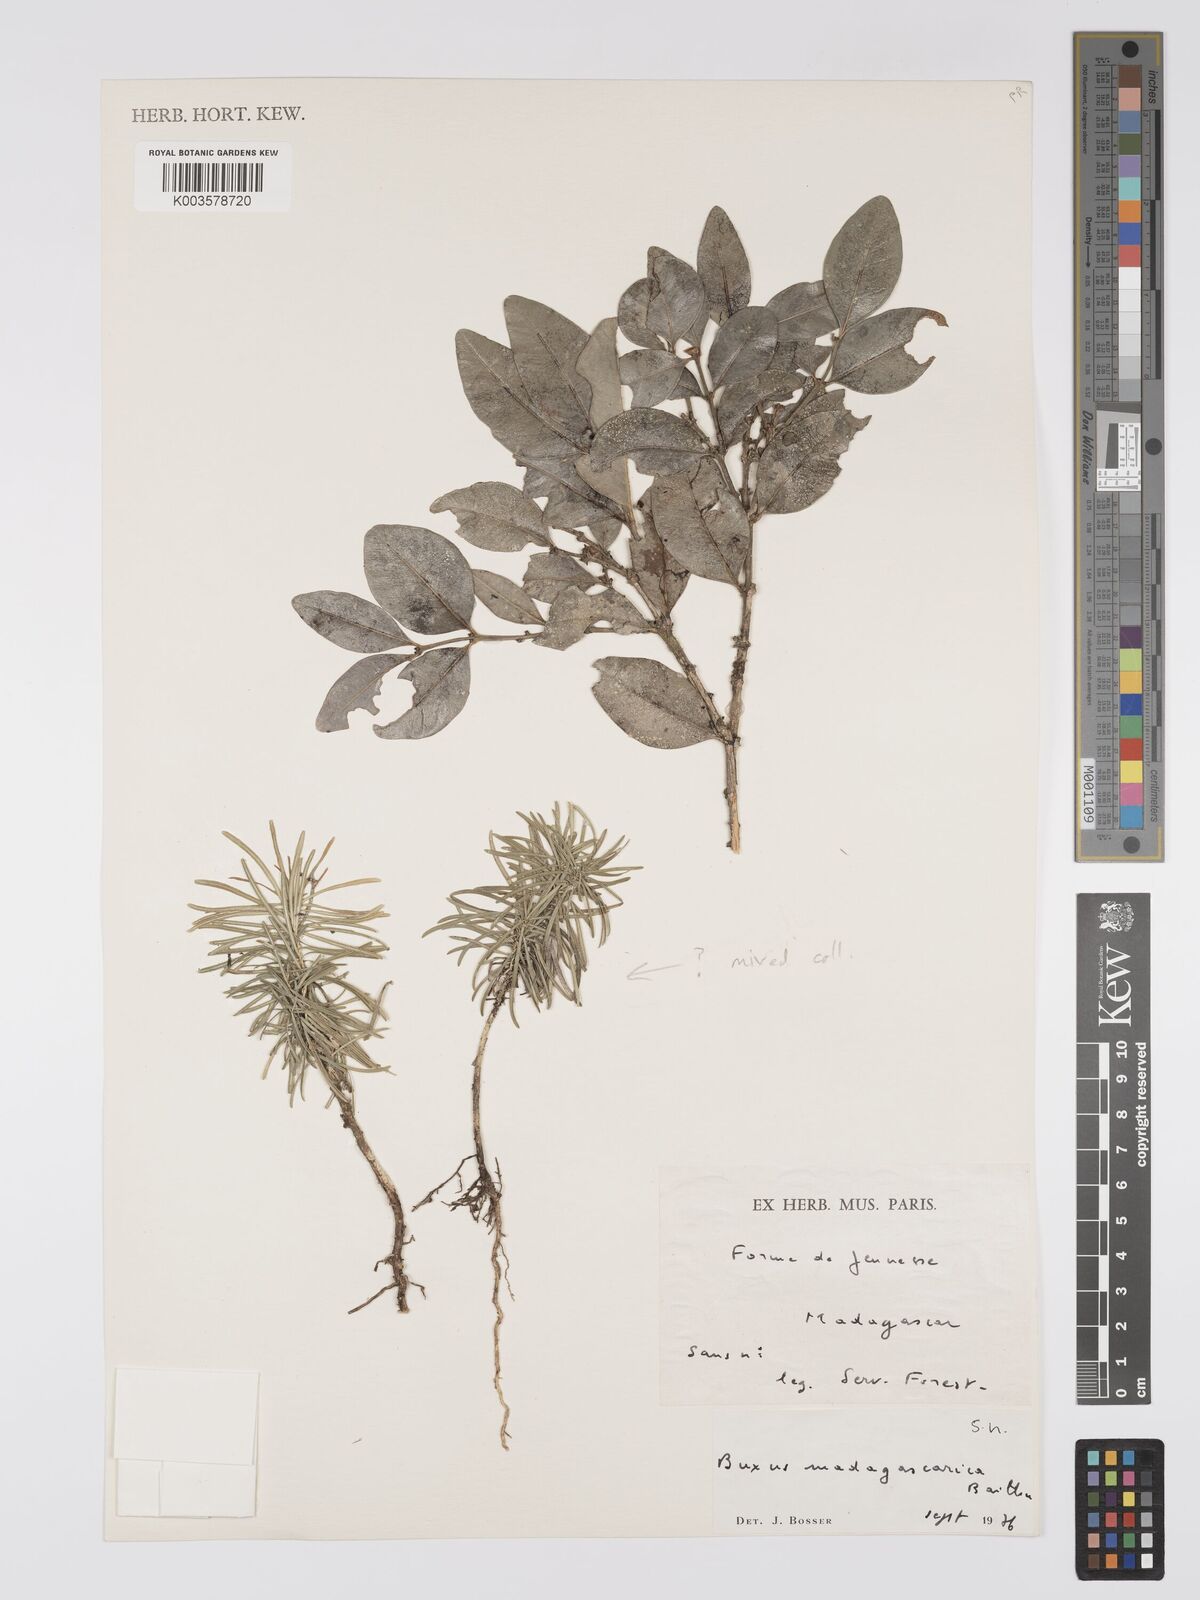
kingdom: Plantae
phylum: Tracheophyta
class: Magnoliopsida
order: Buxales
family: Buxaceae
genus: Buxus
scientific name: Buxus madagascarica
